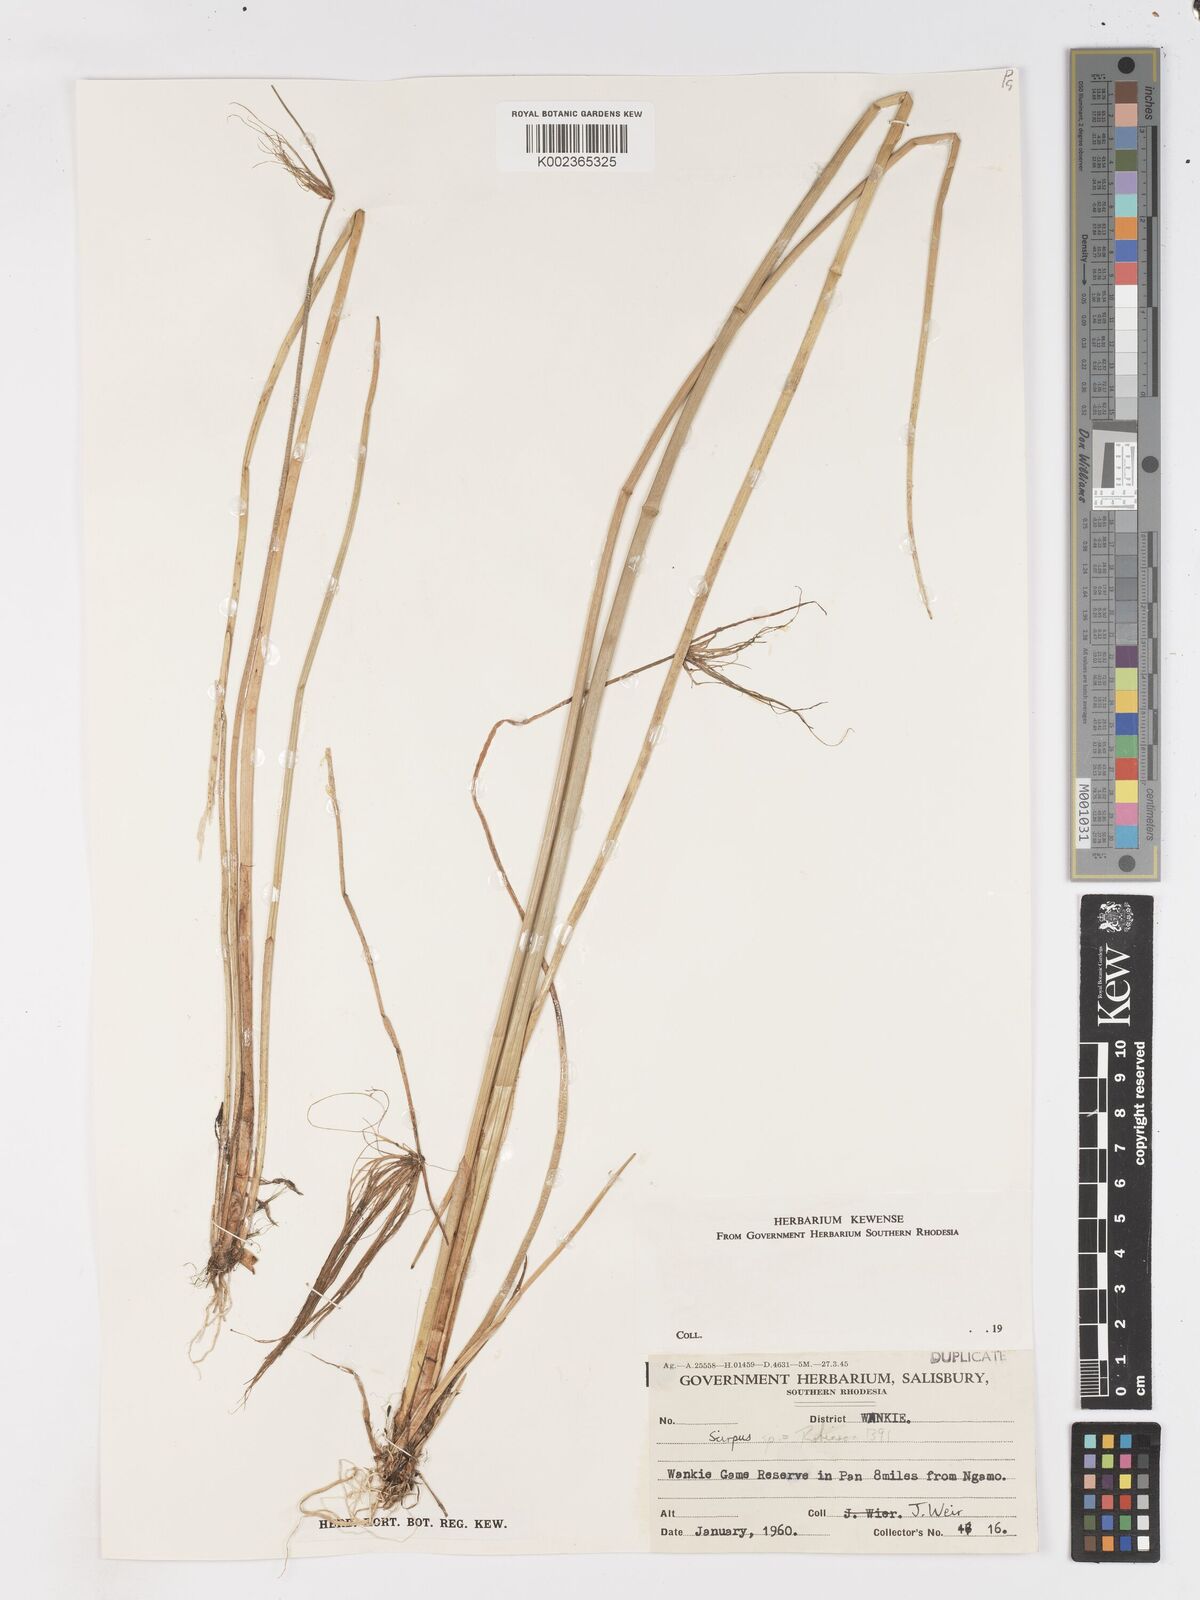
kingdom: Plantae
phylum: Tracheophyta
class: Liliopsida
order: Poales
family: Cyperaceae
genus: Schoenoplectus
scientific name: Schoenoplectus
